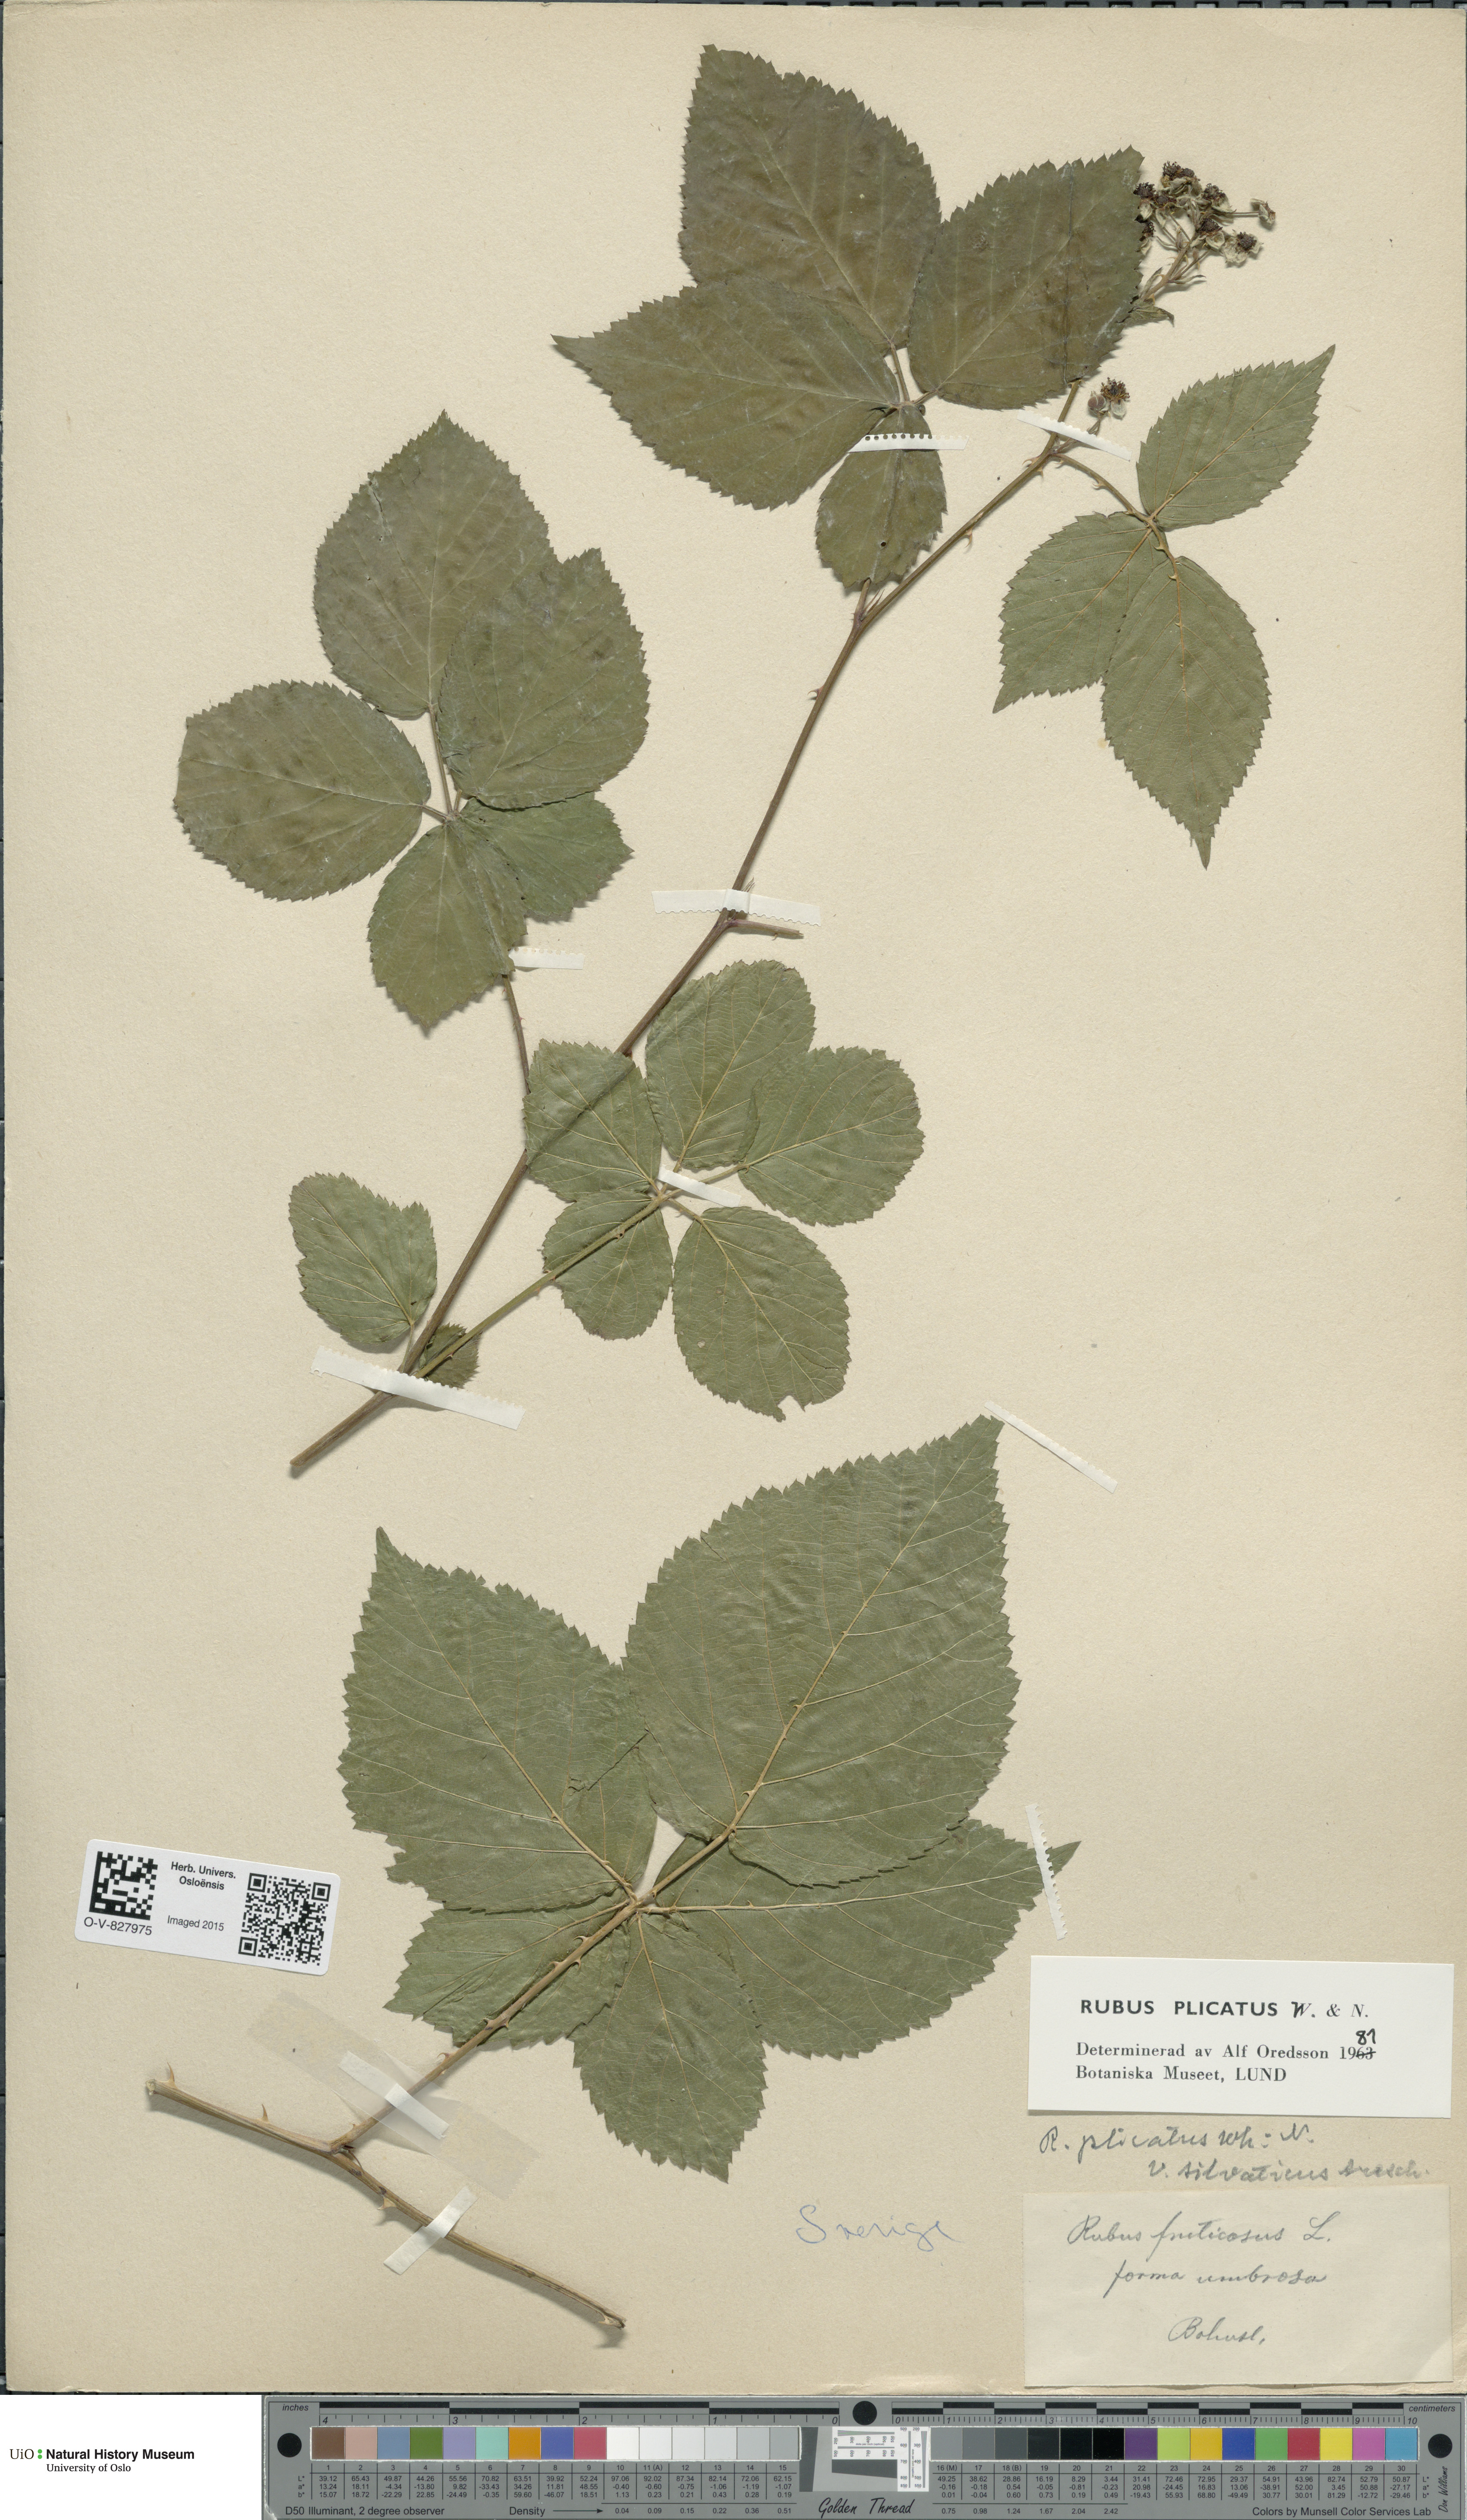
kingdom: Plantae
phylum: Tracheophyta
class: Magnoliopsida
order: Rosales
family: Rosaceae
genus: Rubus
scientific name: Rubus fruticosus
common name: Blackberry, bramble
